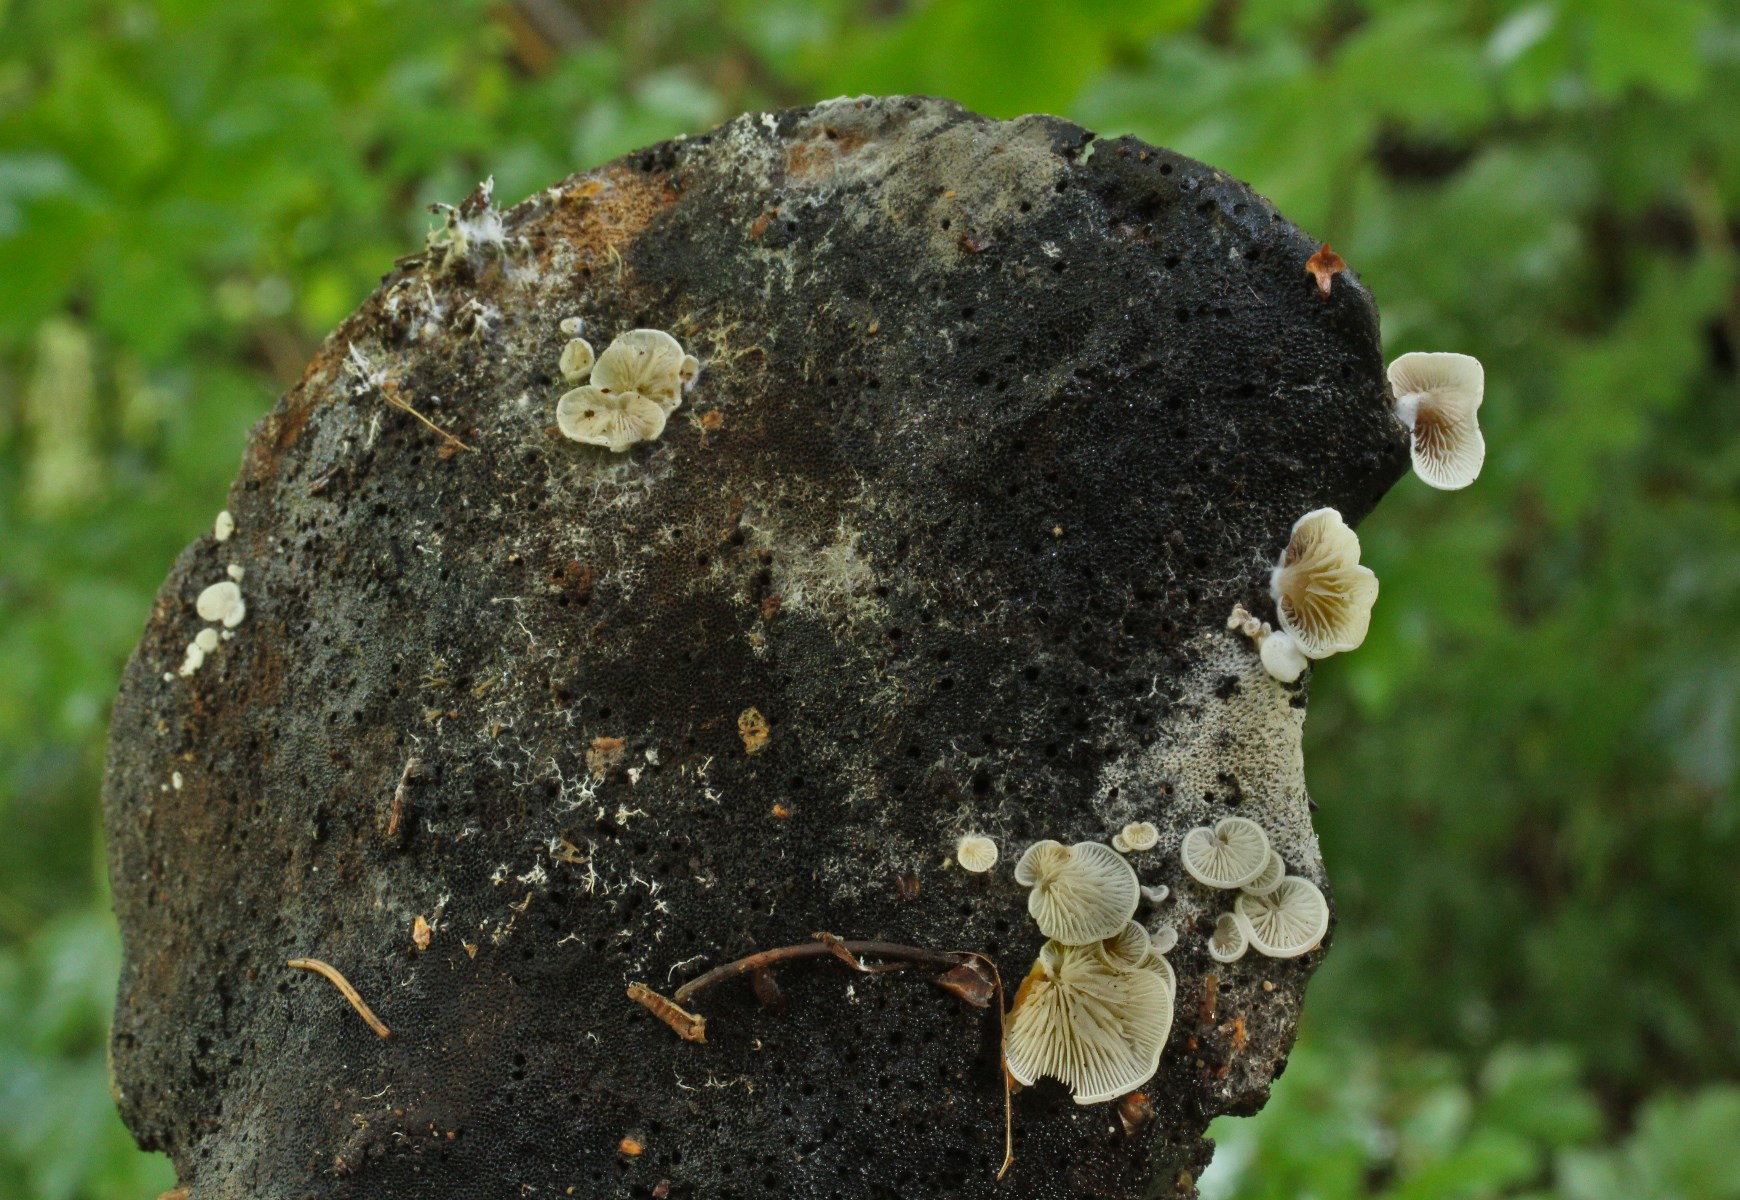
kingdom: Fungi
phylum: Basidiomycota
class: Agaricomycetes
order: Agaricales
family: Entolomataceae
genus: Clitopilus
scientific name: Clitopilus hobsonii
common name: Miller's oysterling
